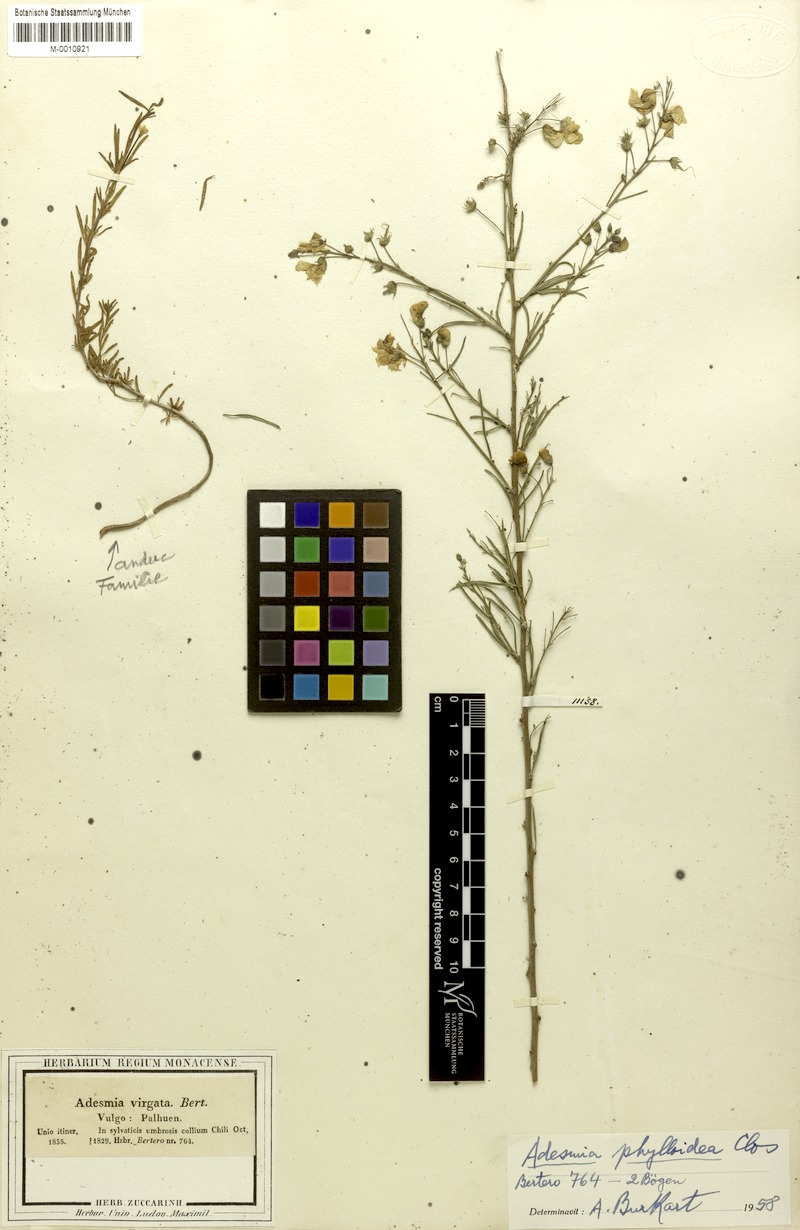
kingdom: Plantae
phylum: Tracheophyta
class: Magnoliopsida
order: Fabales
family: Fabaceae
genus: Adesmia
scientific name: Adesmia phylloidea
